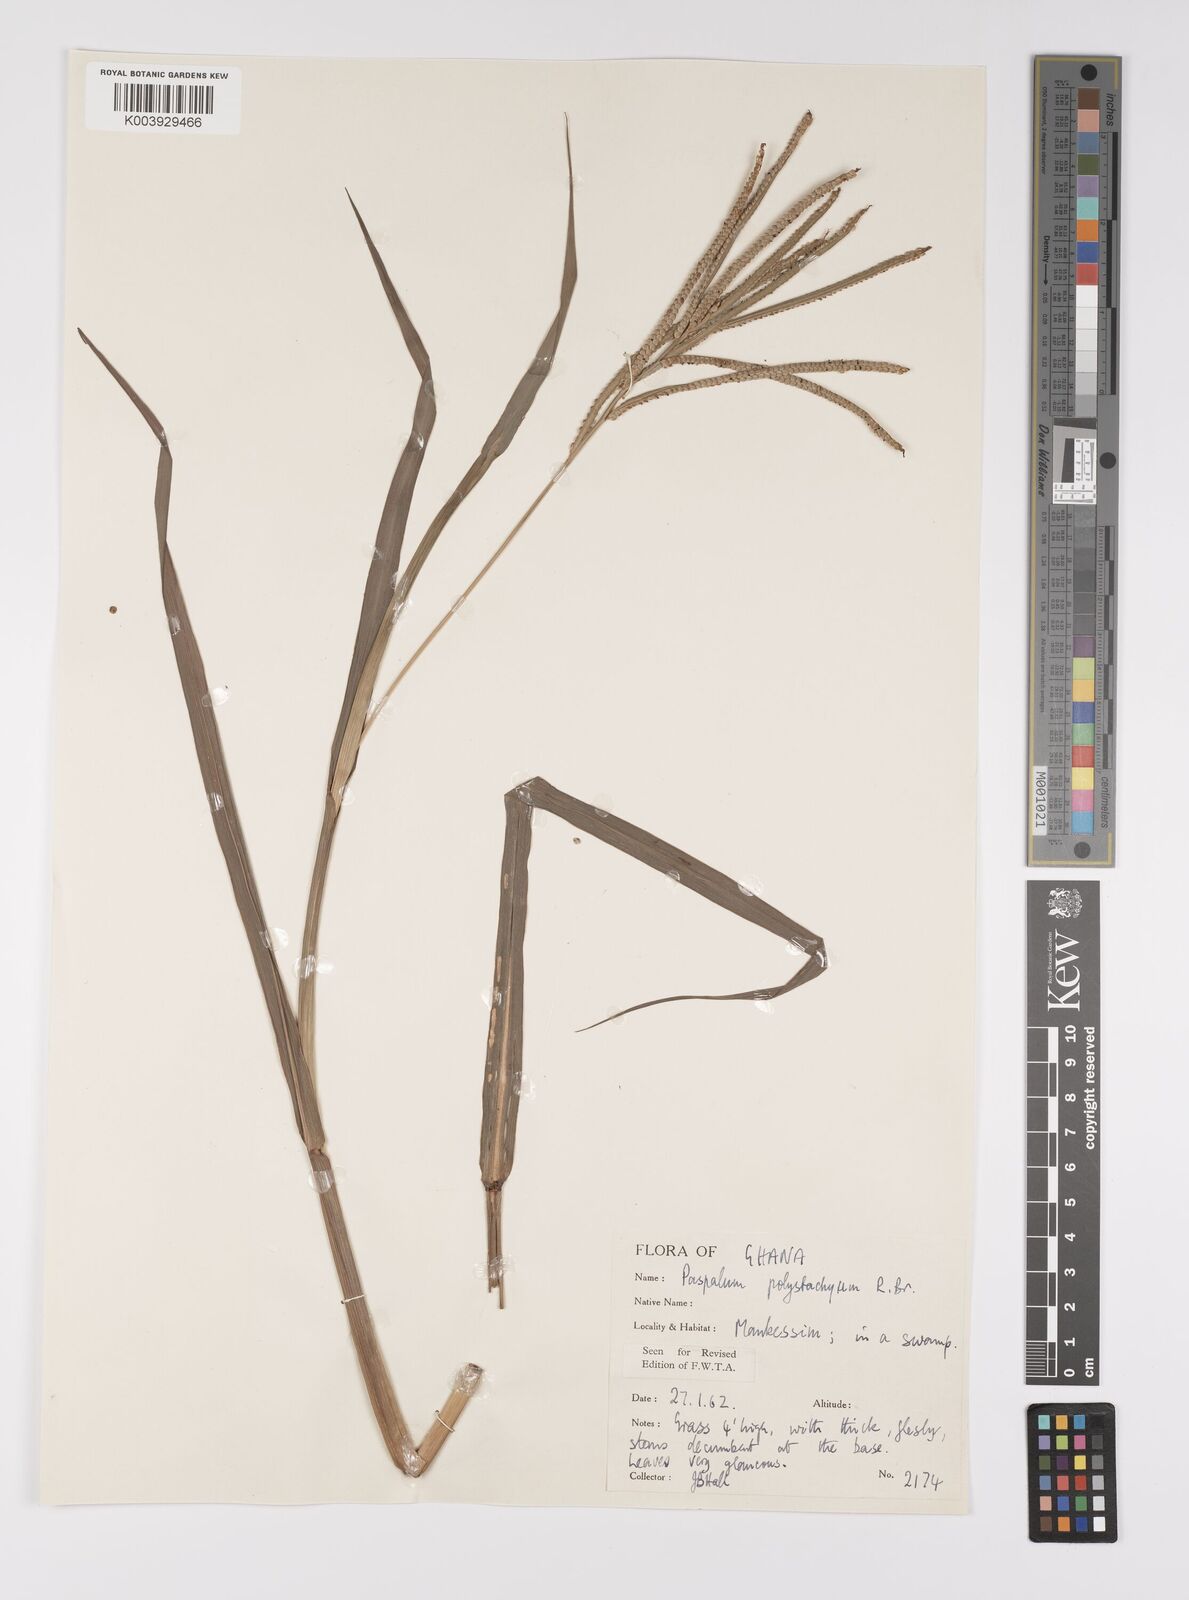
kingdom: Plantae
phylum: Tracheophyta
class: Liliopsida
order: Poales
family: Poaceae
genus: Paspalum
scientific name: Paspalum scrobiculatum
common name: Kodo millet
